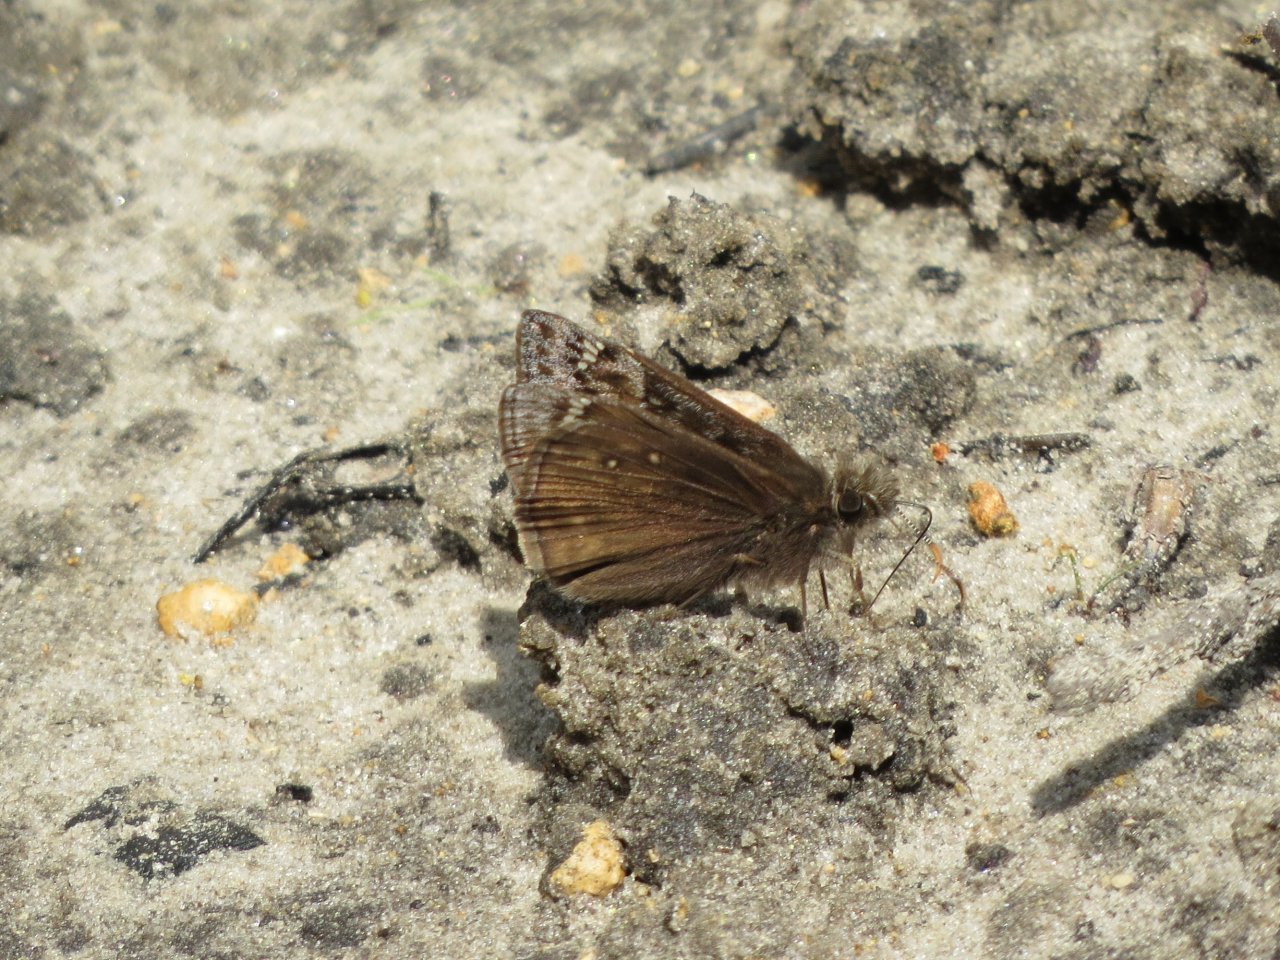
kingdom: Animalia
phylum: Arthropoda
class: Insecta
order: Lepidoptera
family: Hesperiidae
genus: Gesta
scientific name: Gesta
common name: Juvenal's Duskywing
